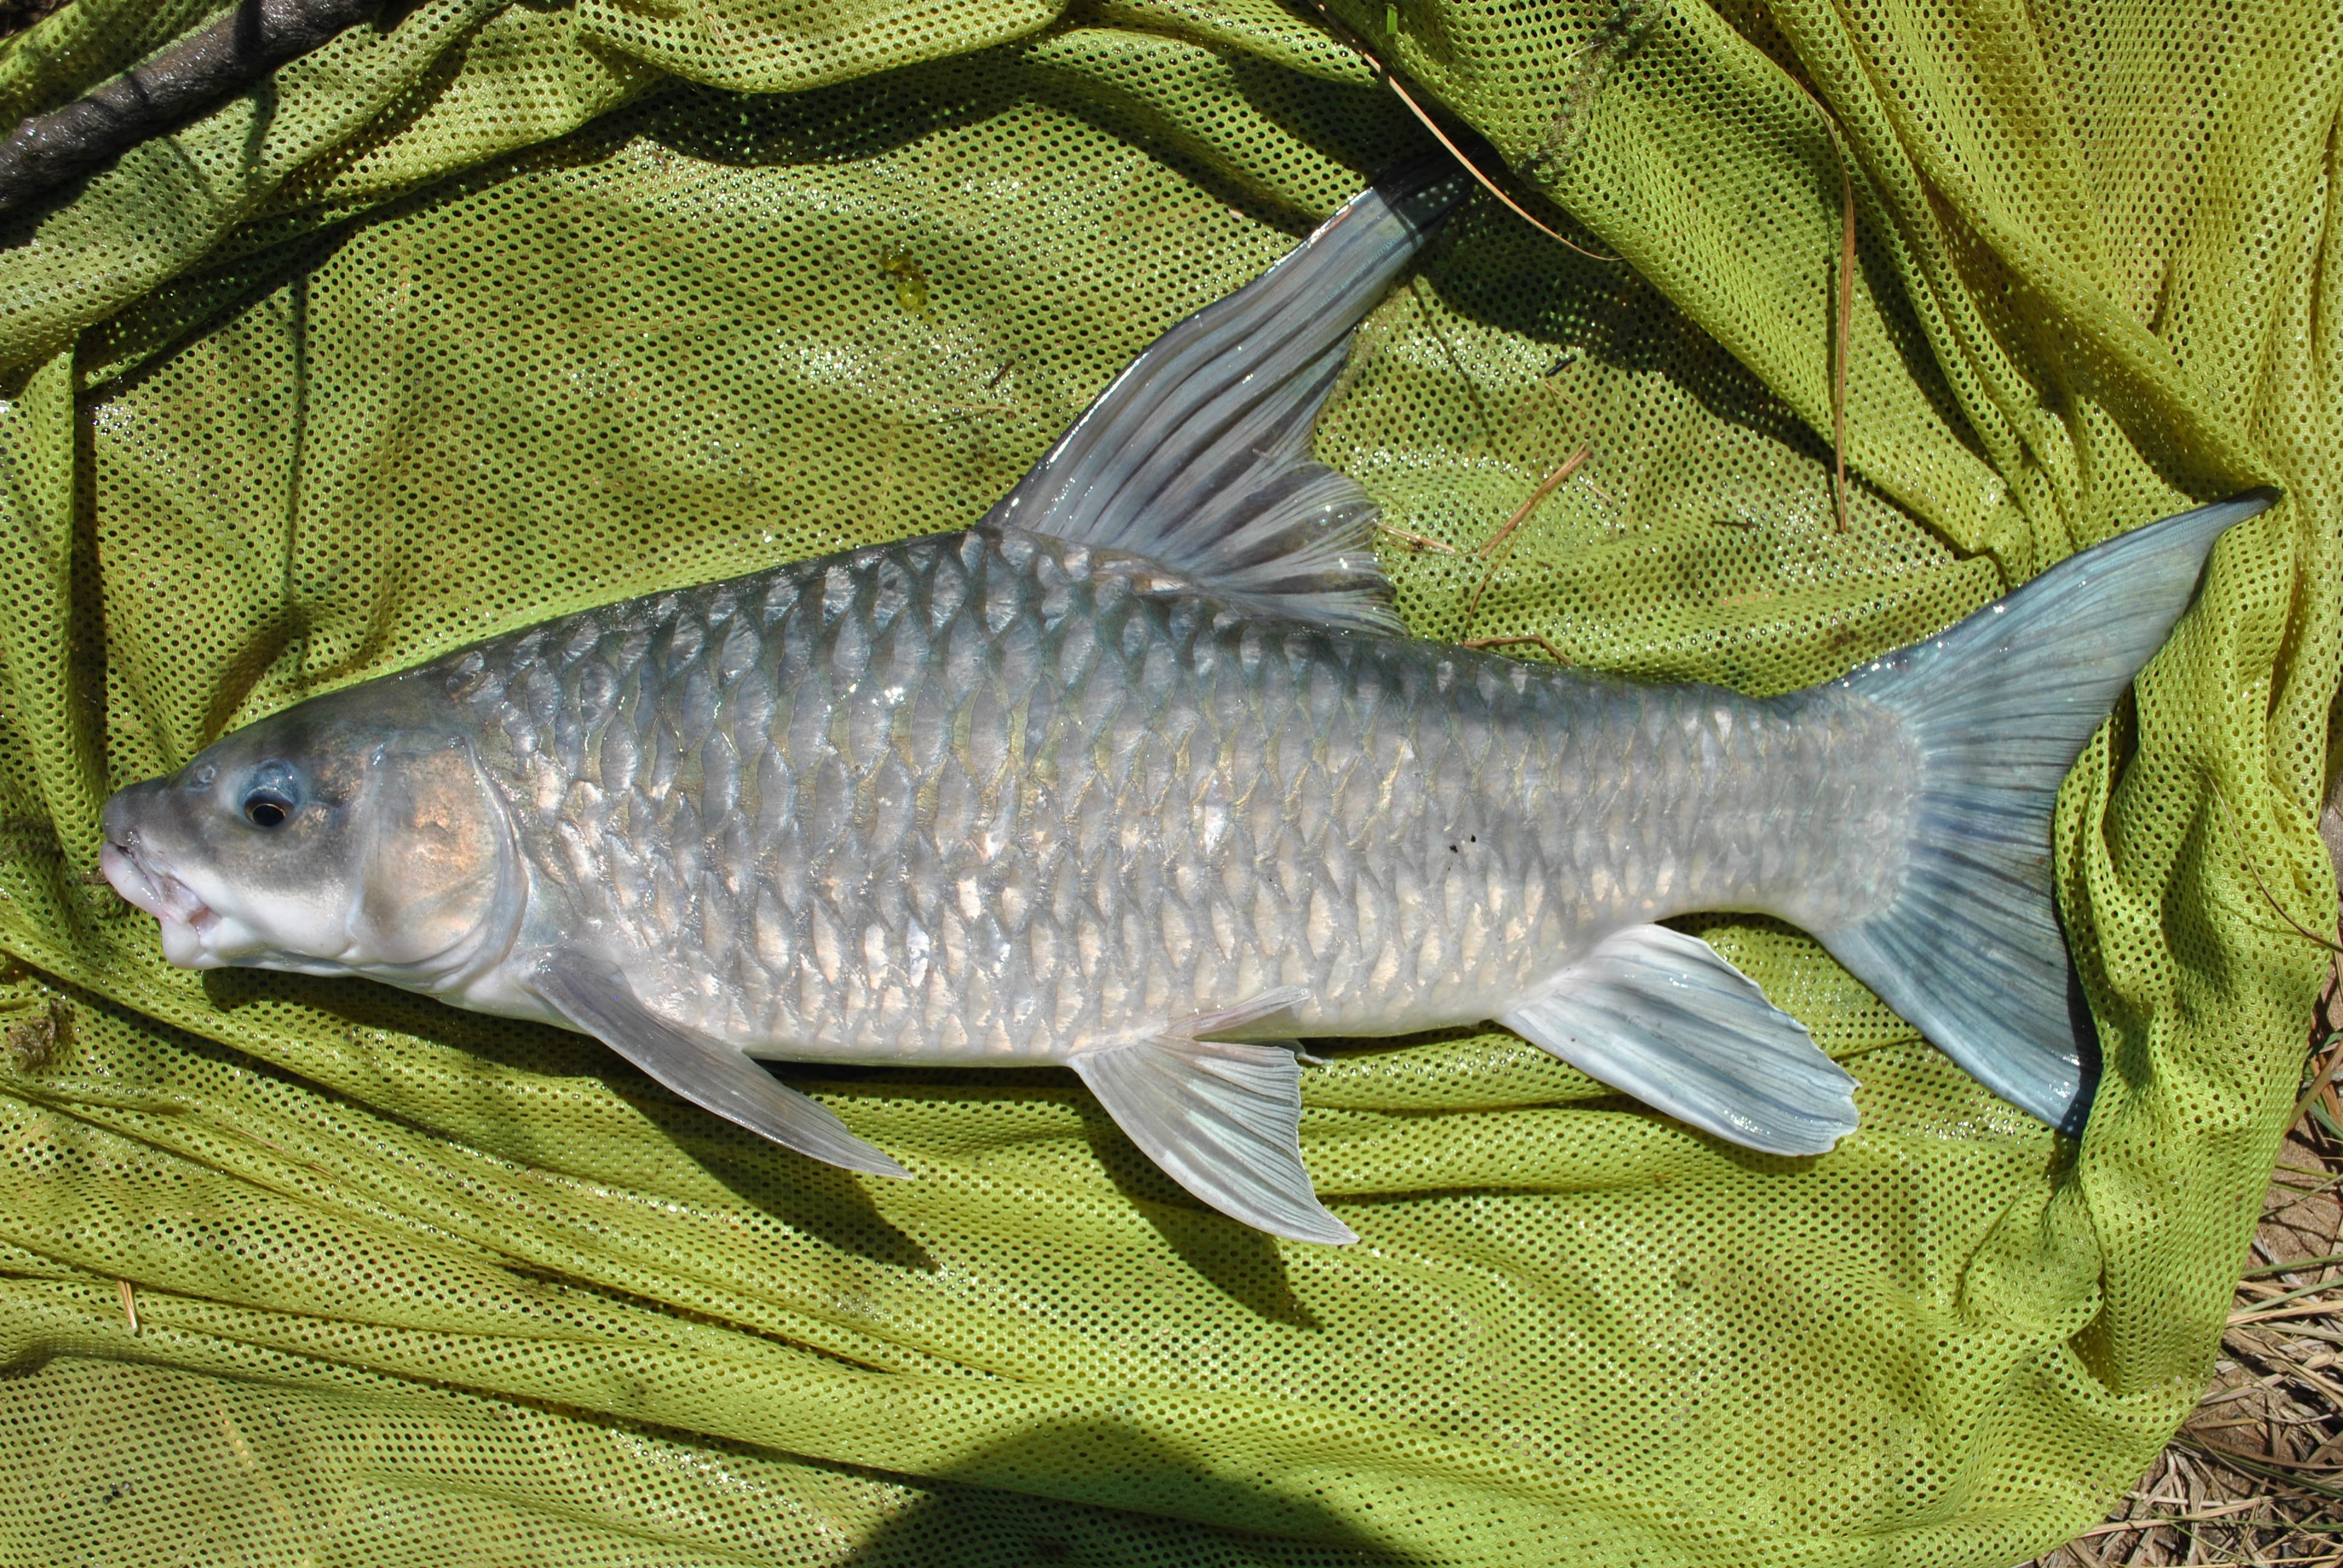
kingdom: Animalia
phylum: Chordata
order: Cypriniformes
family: Cyprinidae
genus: Labeobarbus
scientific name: Labeobarbus codringtonii
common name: Upper zambezi yellowfish
